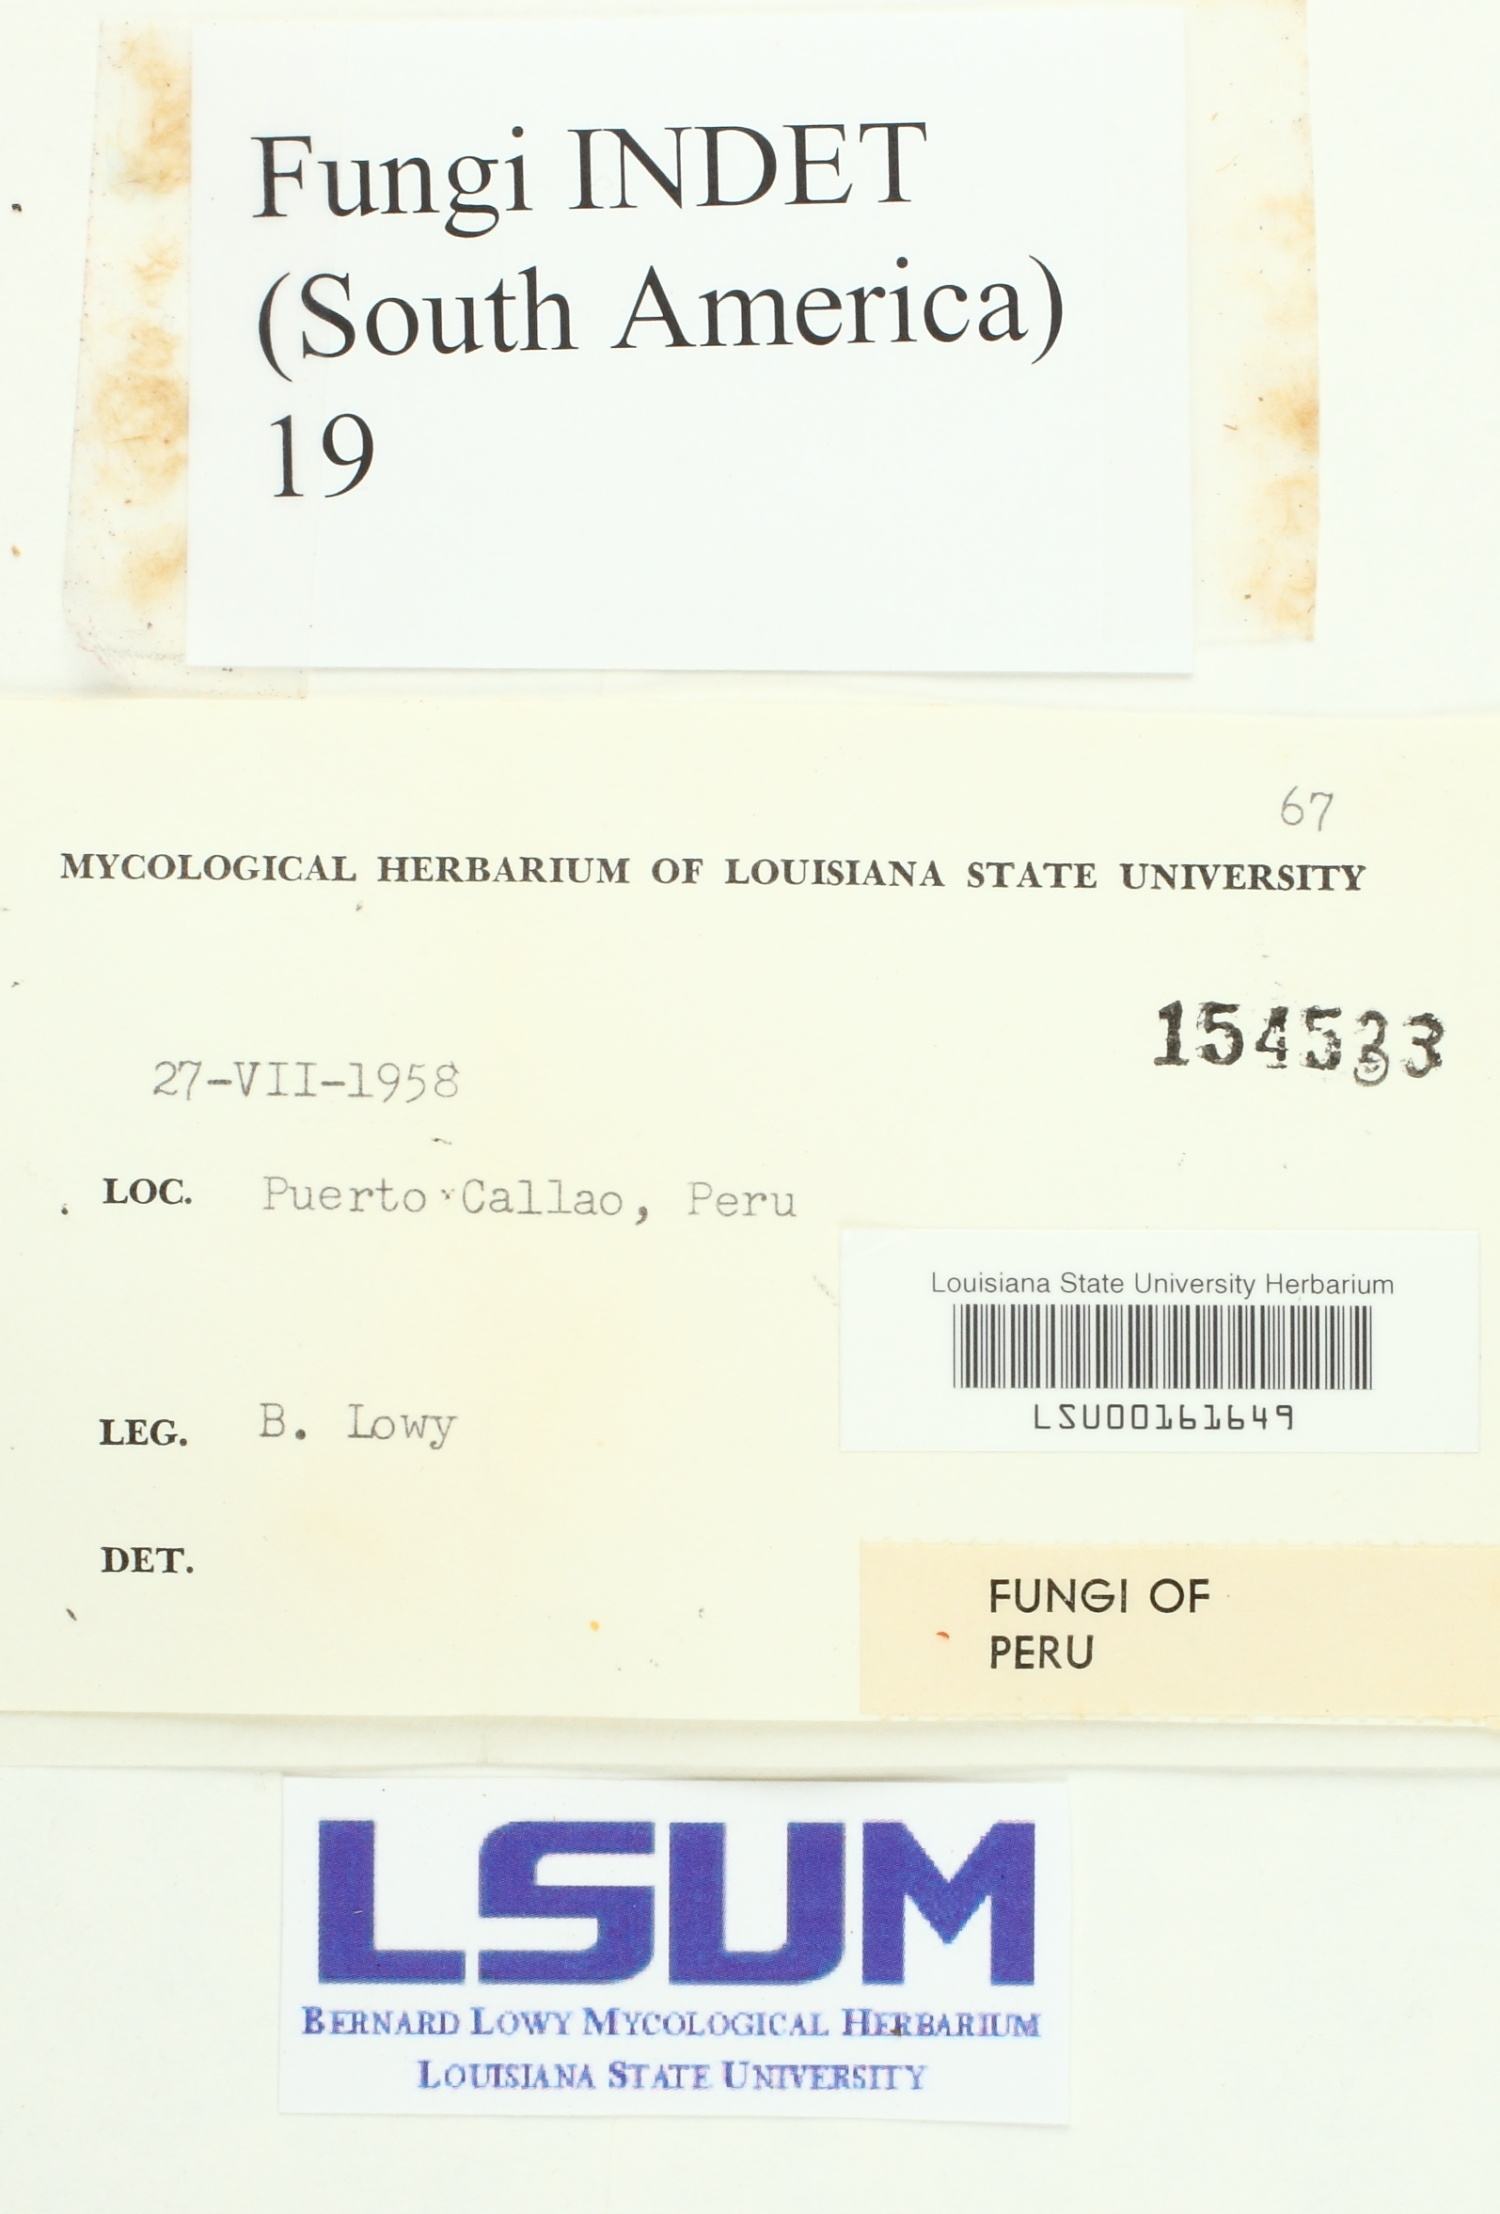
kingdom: Fungi
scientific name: Fungi
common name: Fungi
